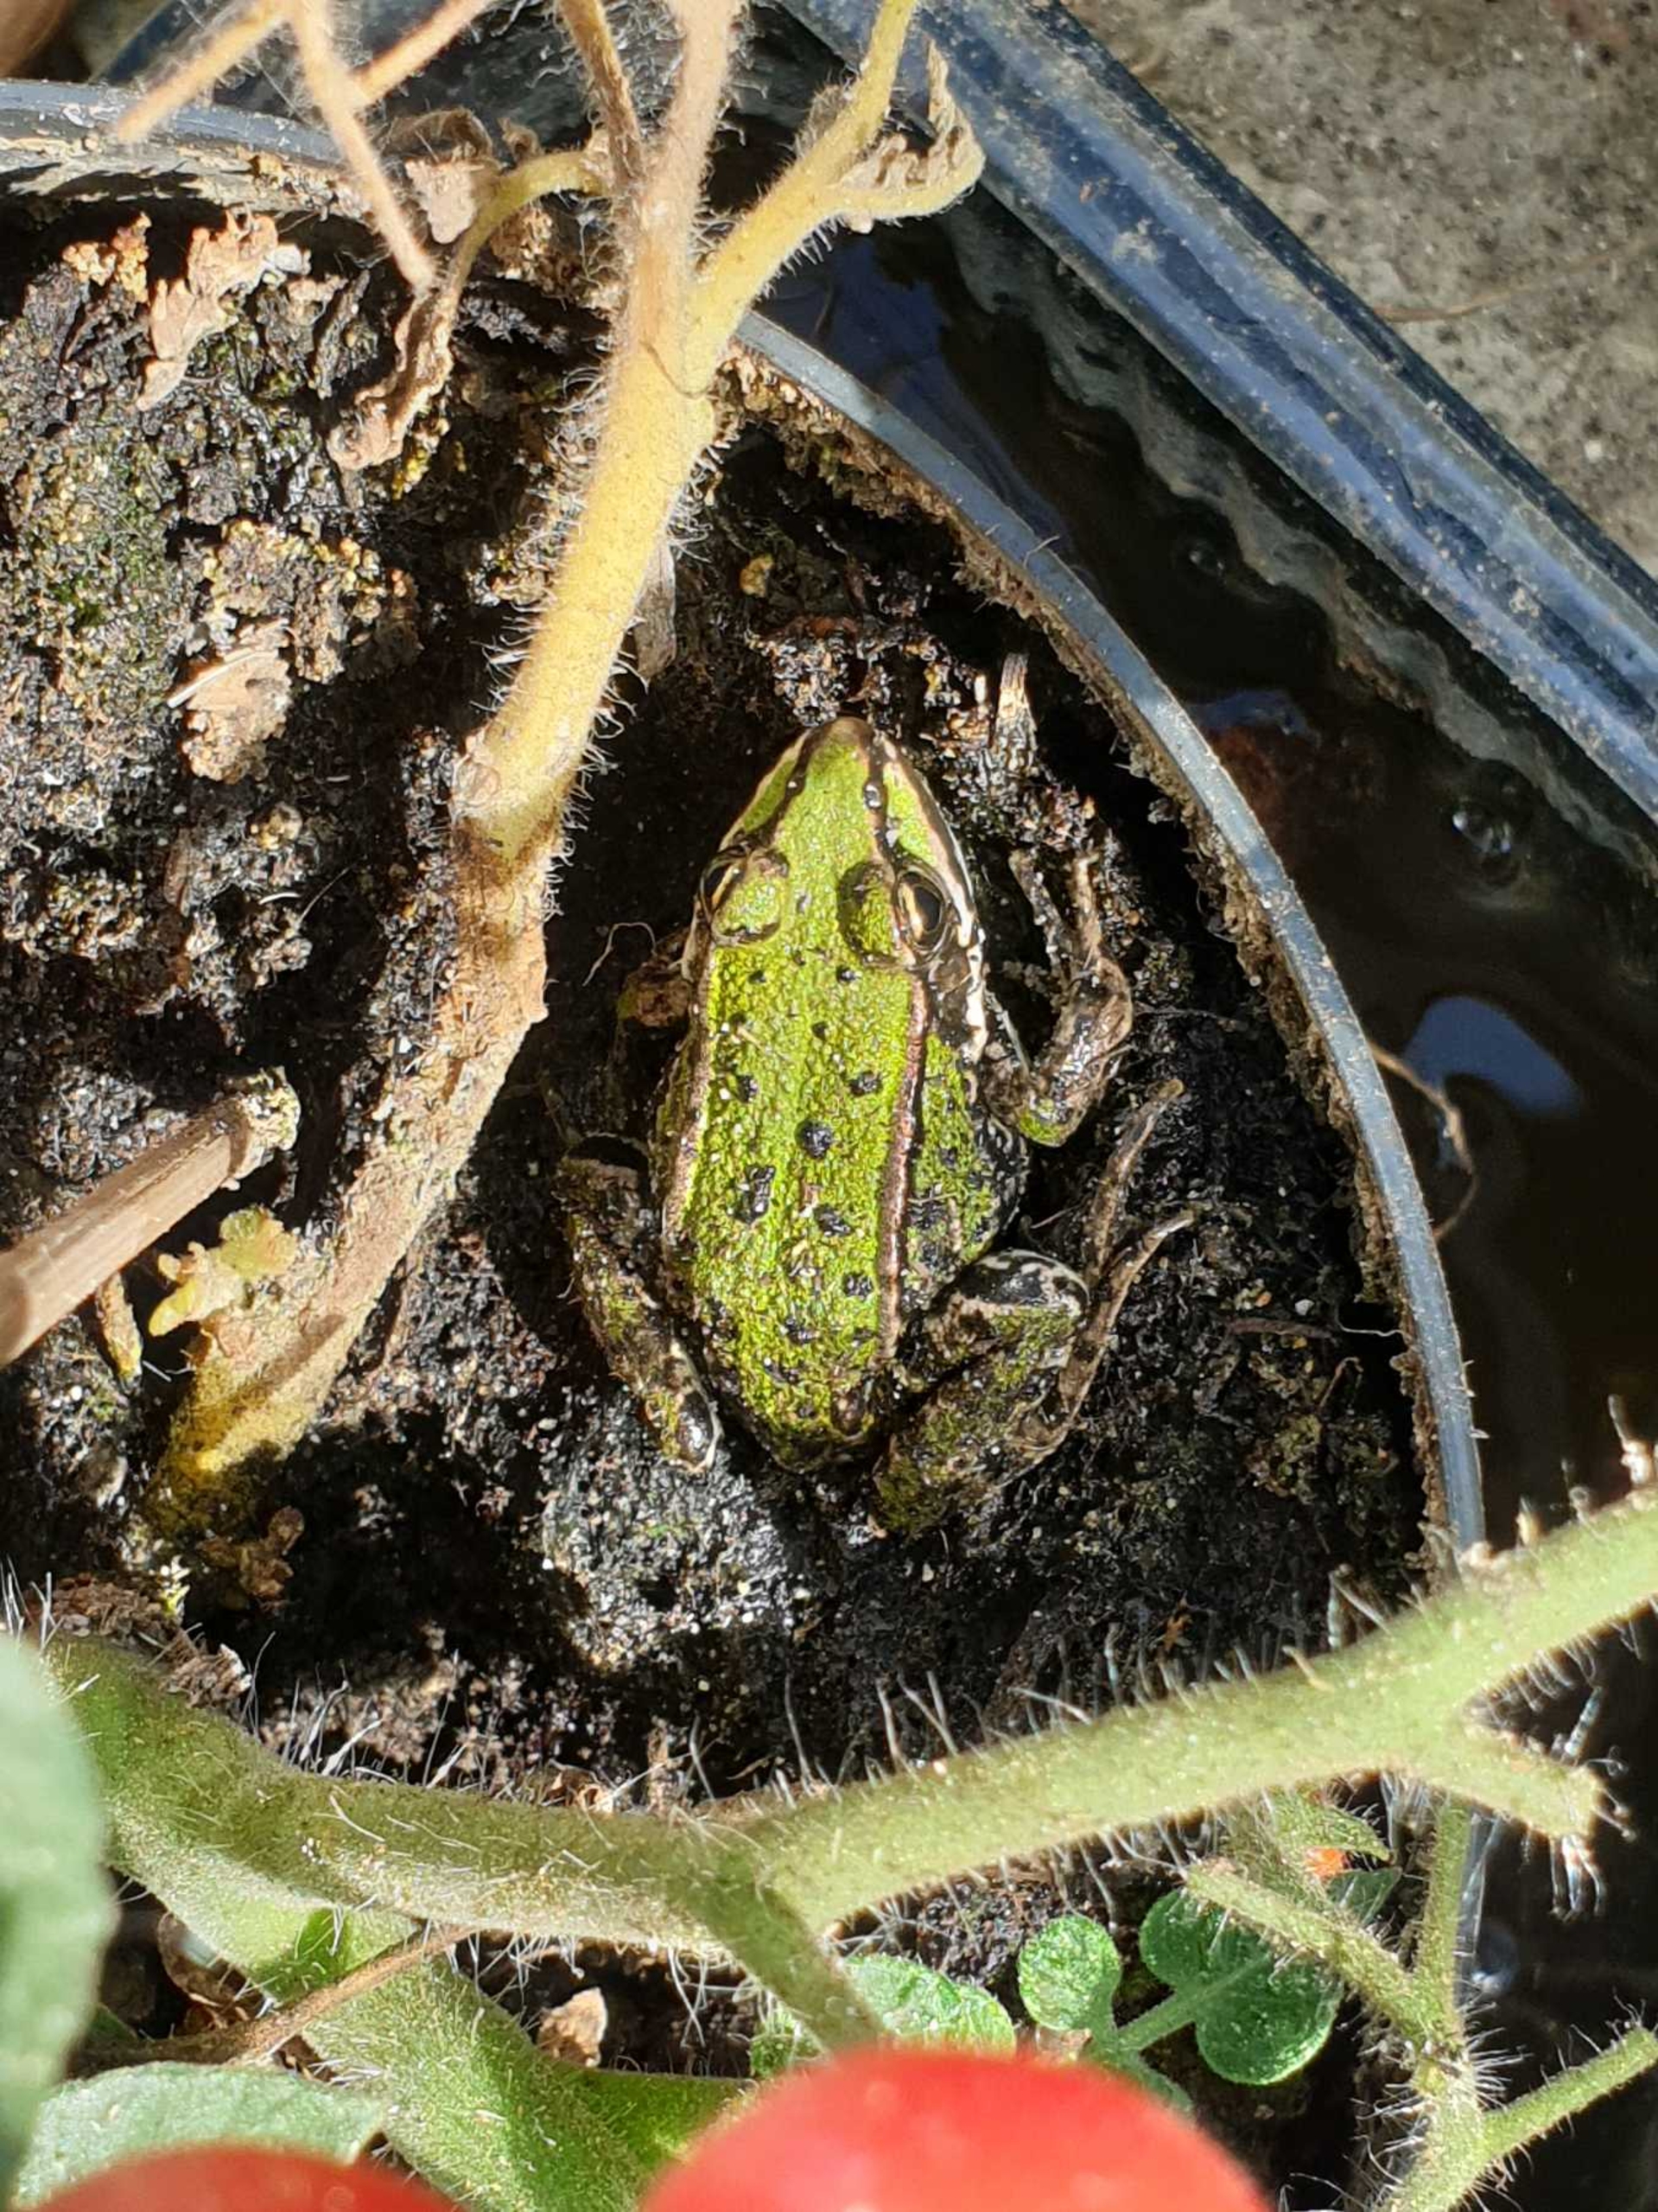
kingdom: Animalia
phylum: Chordata
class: Amphibia
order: Anura
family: Ranidae
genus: Pelophylax
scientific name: Pelophylax lessonae
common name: Grøn frø
